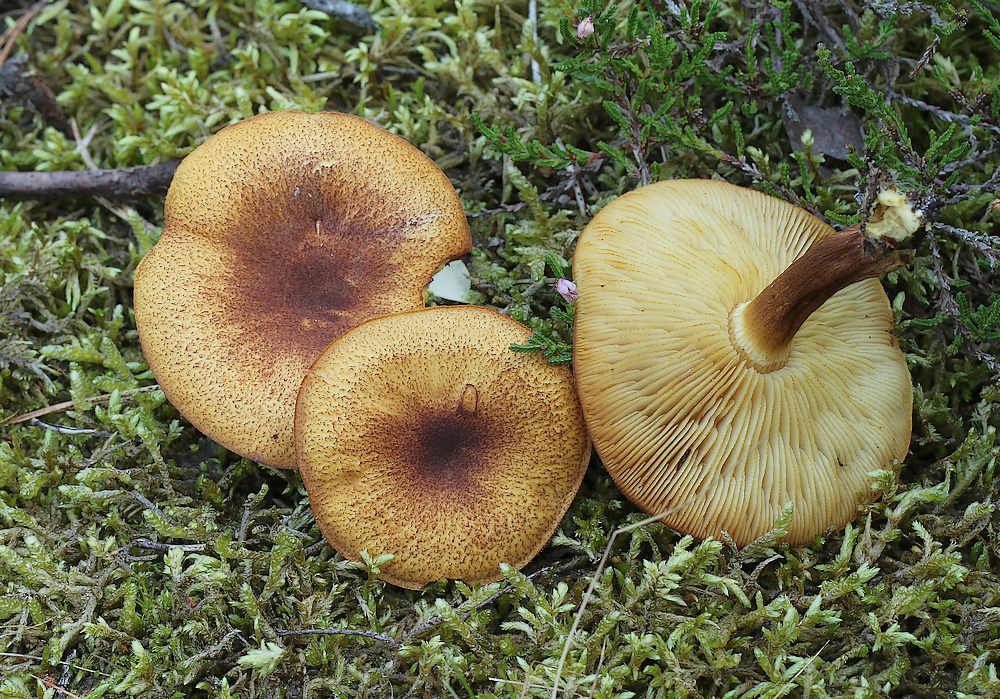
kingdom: Fungi
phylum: Basidiomycota
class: Agaricomycetes
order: Agaricales
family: Tricholomataceae
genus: Tricholomopsis
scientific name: Tricholomopsis rutilans
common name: purpur-væbnerhat
